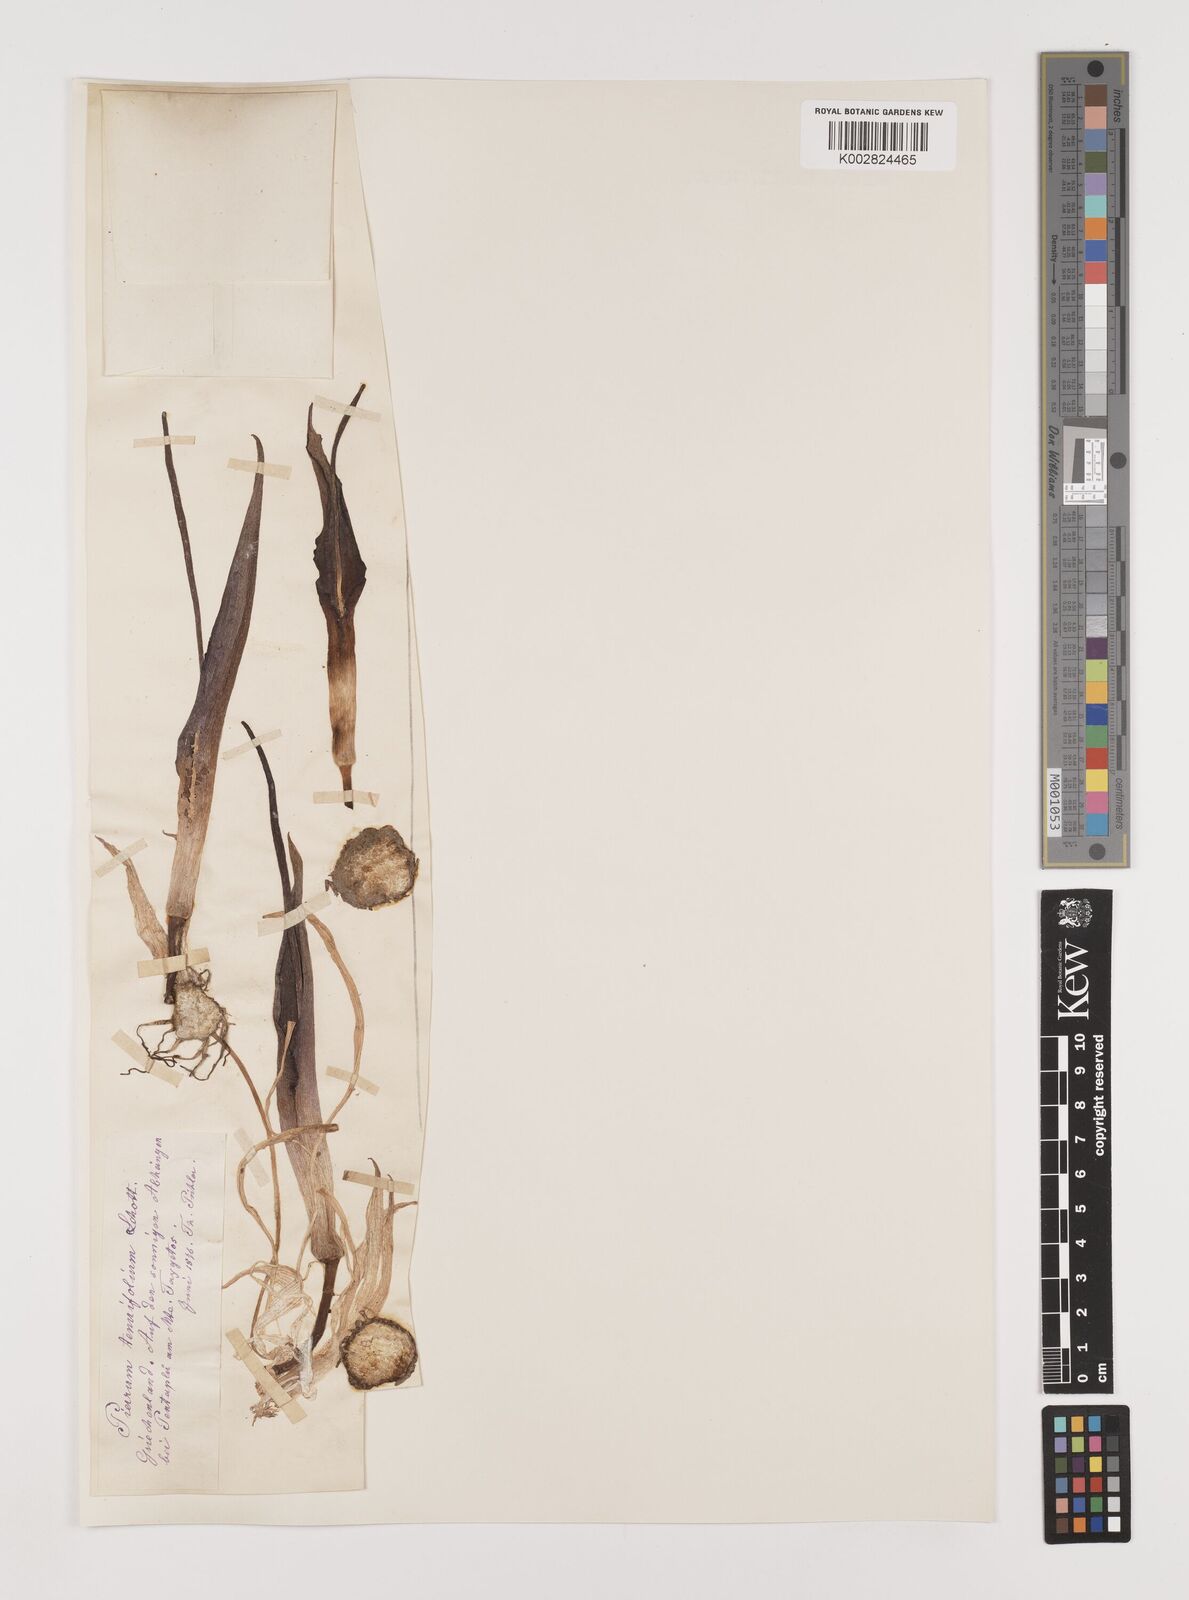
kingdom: Plantae
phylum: Tracheophyta
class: Liliopsida
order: Alismatales
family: Araceae
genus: Biarum
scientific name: Biarum tenuifolium
